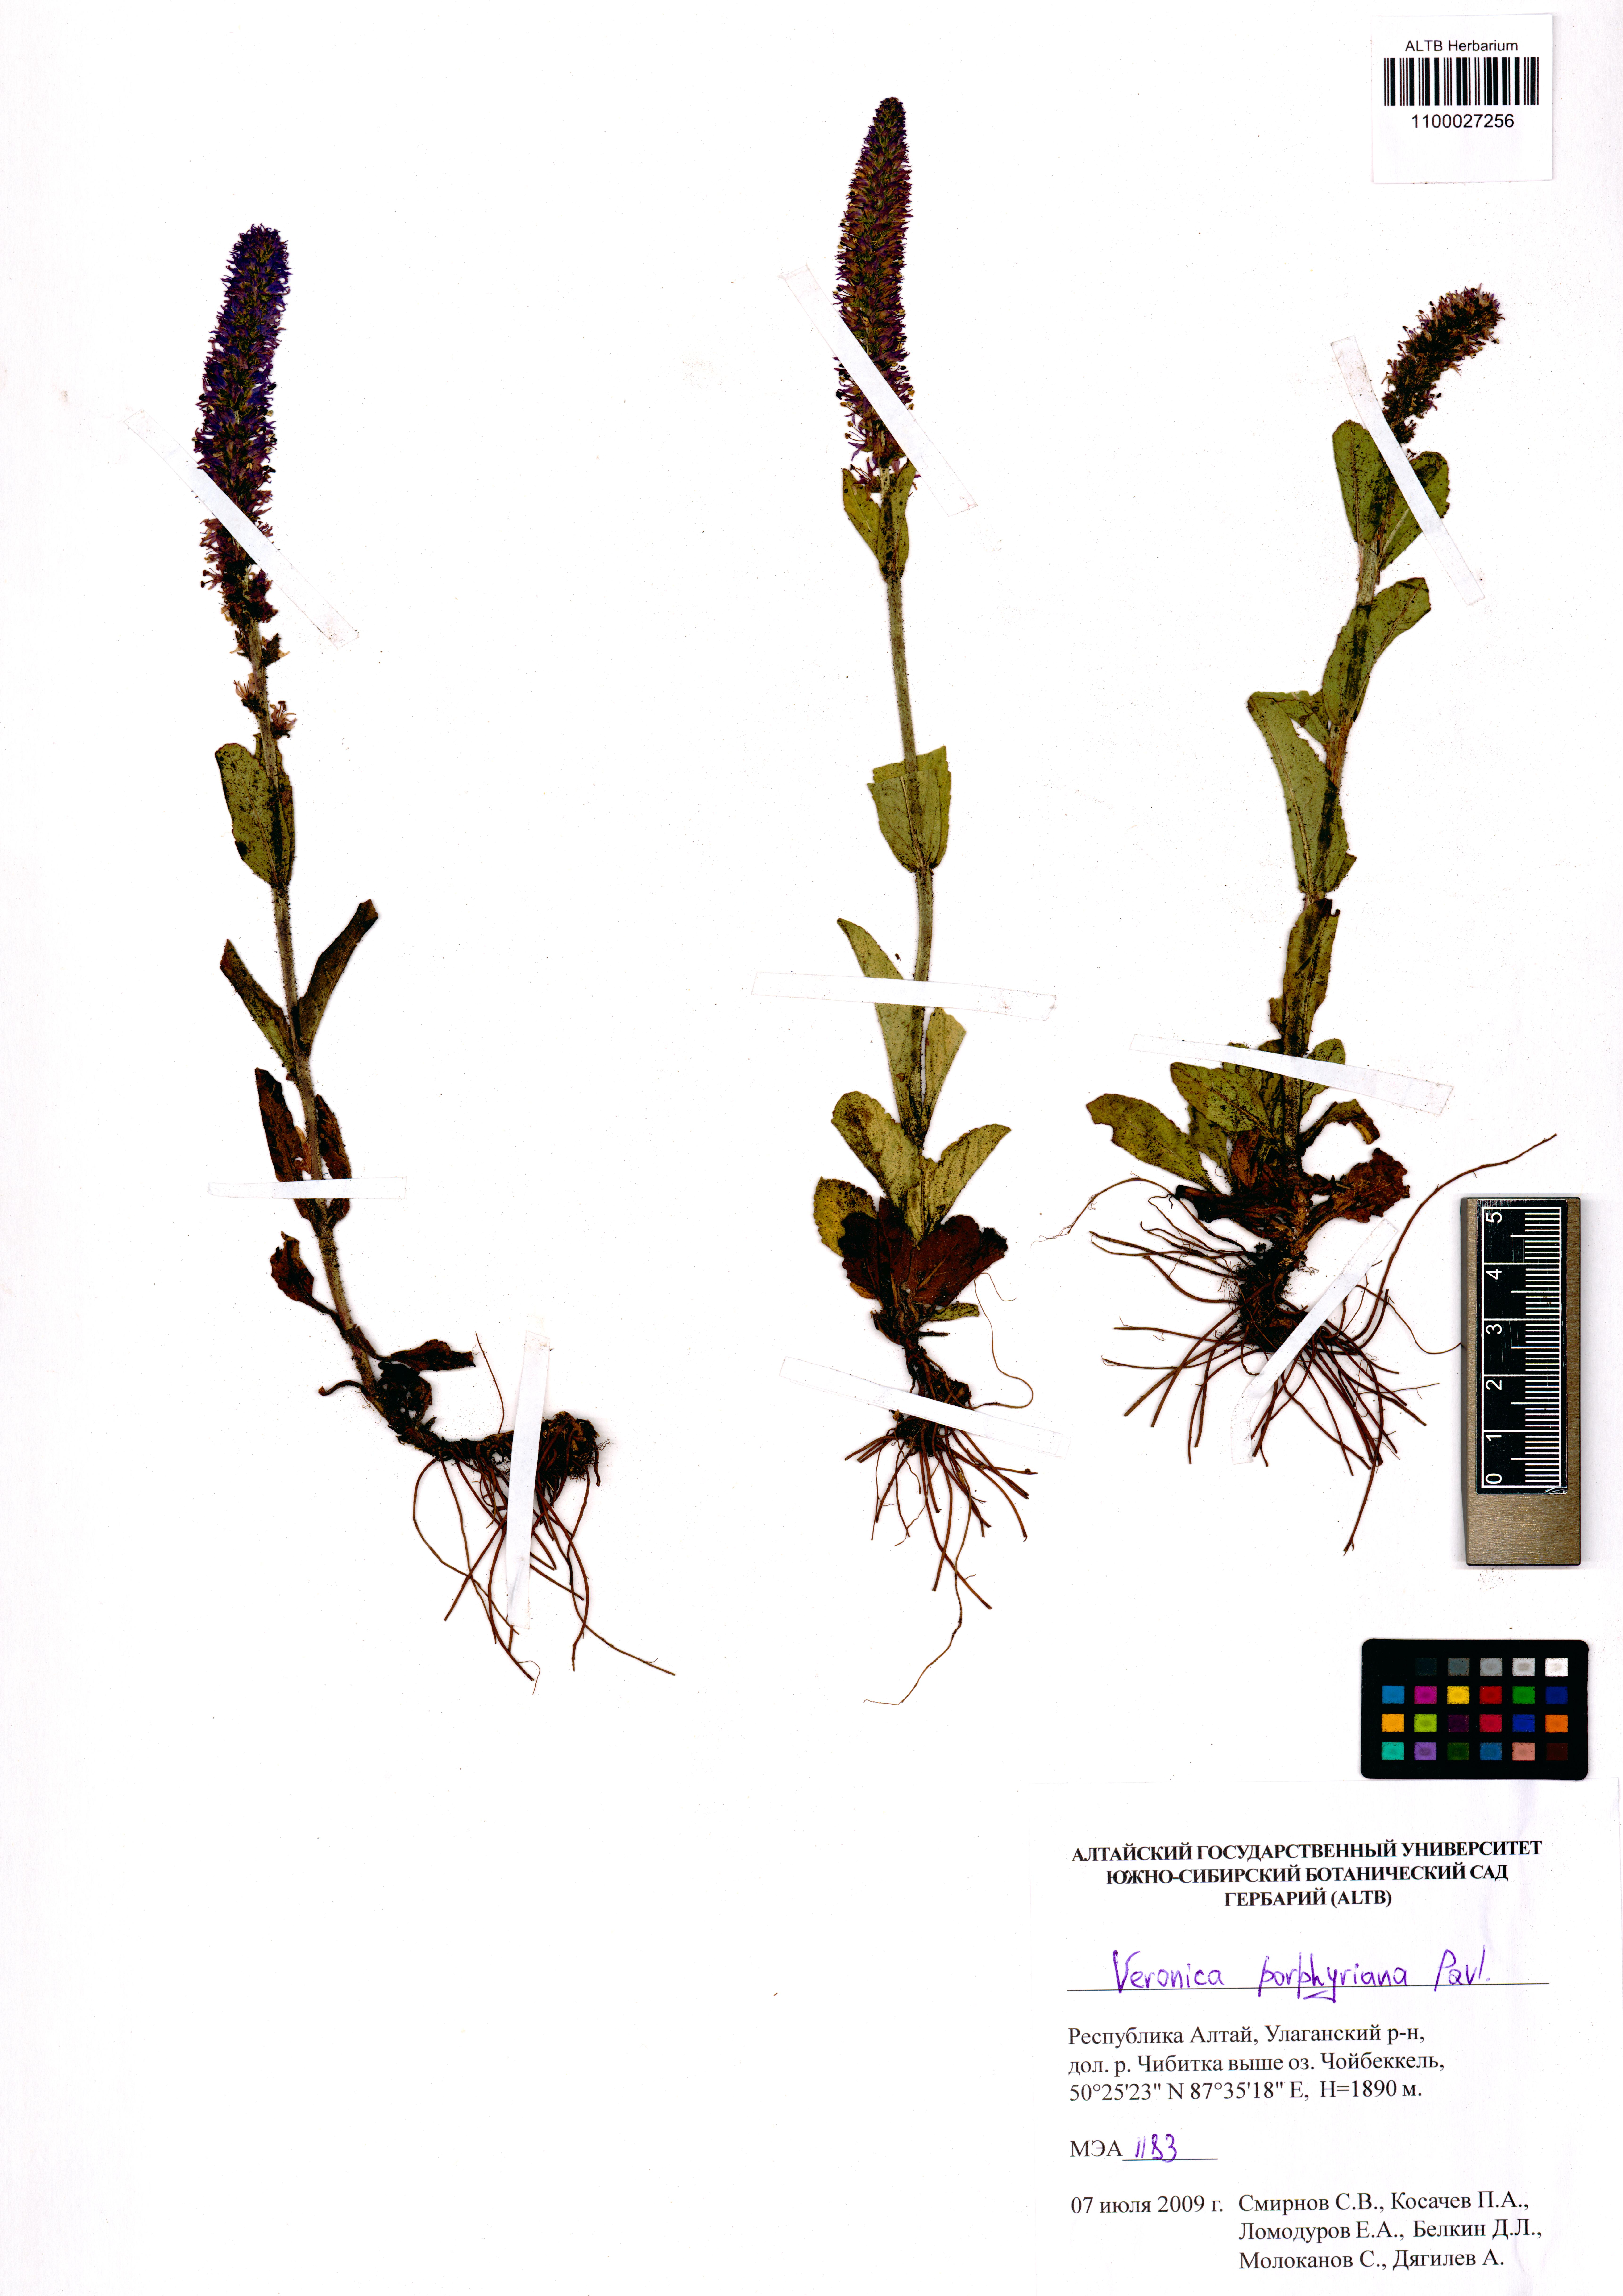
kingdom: Plantae
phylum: Tracheophyta
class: Magnoliopsida
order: Lamiales
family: Plantaginaceae
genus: Veronica
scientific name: Veronica porphyriana
